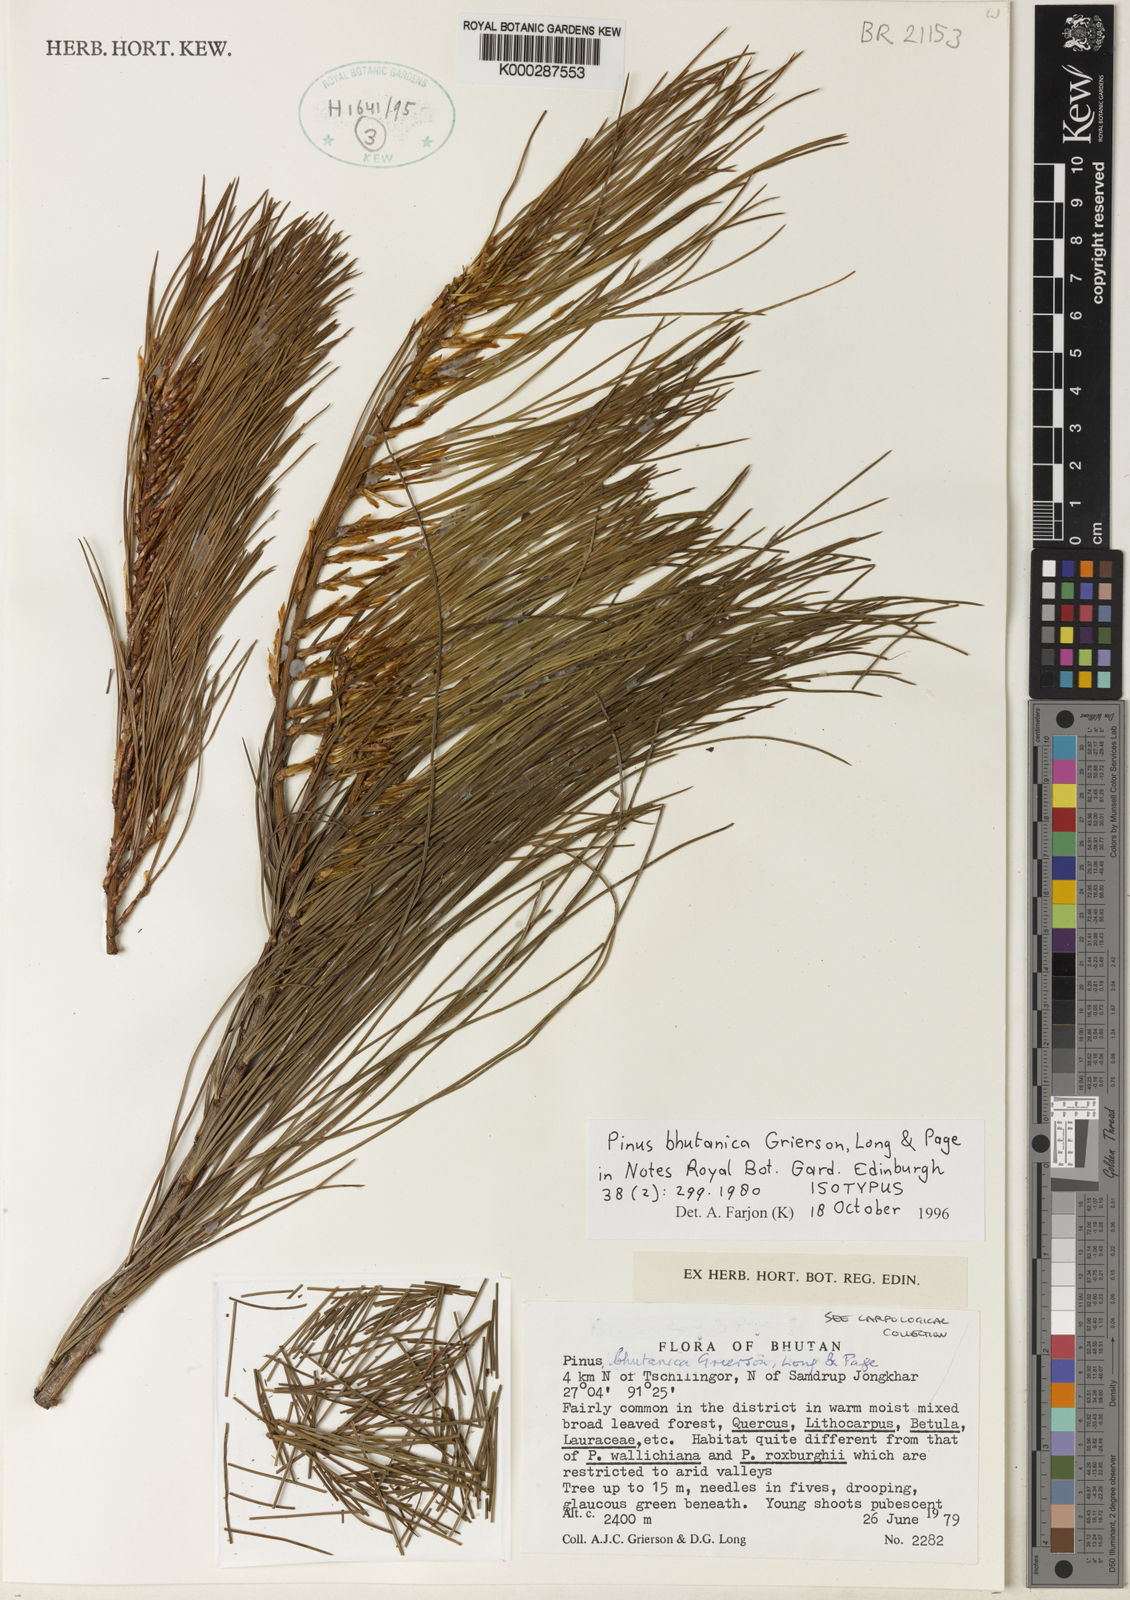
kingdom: Plantae
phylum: Tracheophyta
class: Pinopsida
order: Pinales
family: Pinaceae
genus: Pinus
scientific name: Pinus bhutanica
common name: Bhutan pine
